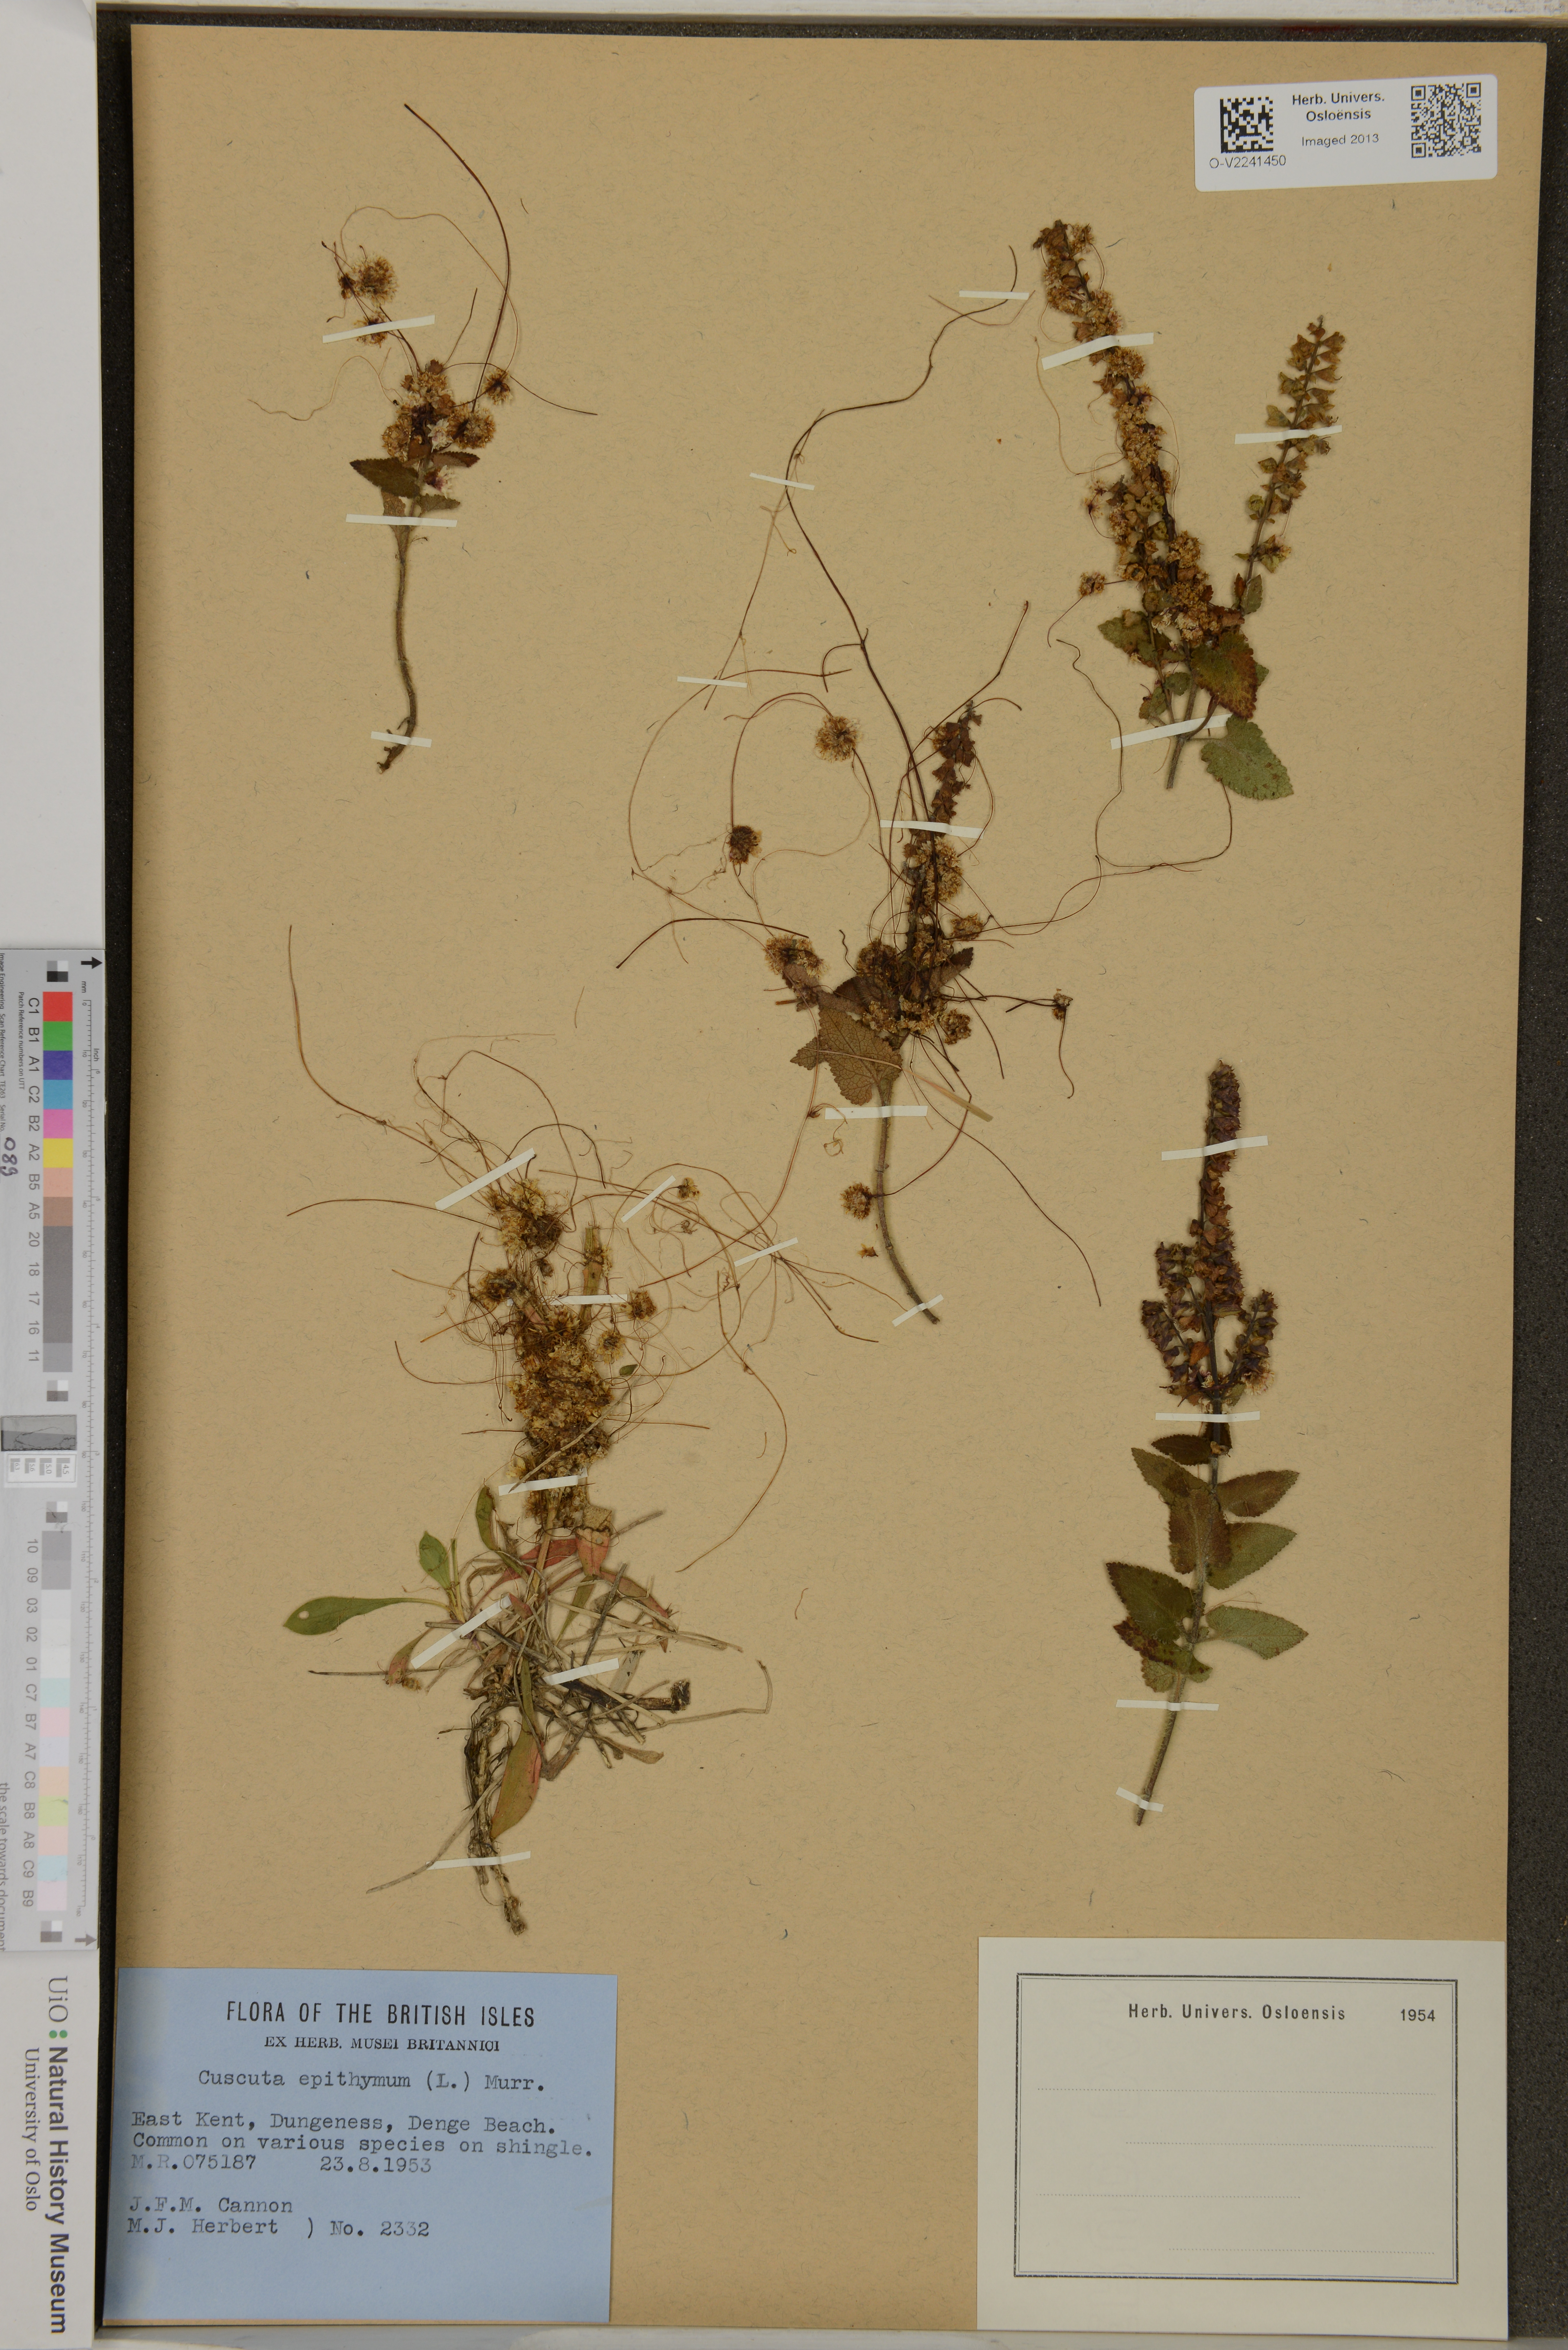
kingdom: Plantae
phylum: Tracheophyta
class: Magnoliopsida
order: Solanales
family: Convolvulaceae
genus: Cuscuta
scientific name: Cuscuta epithymum
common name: Clover dodder
